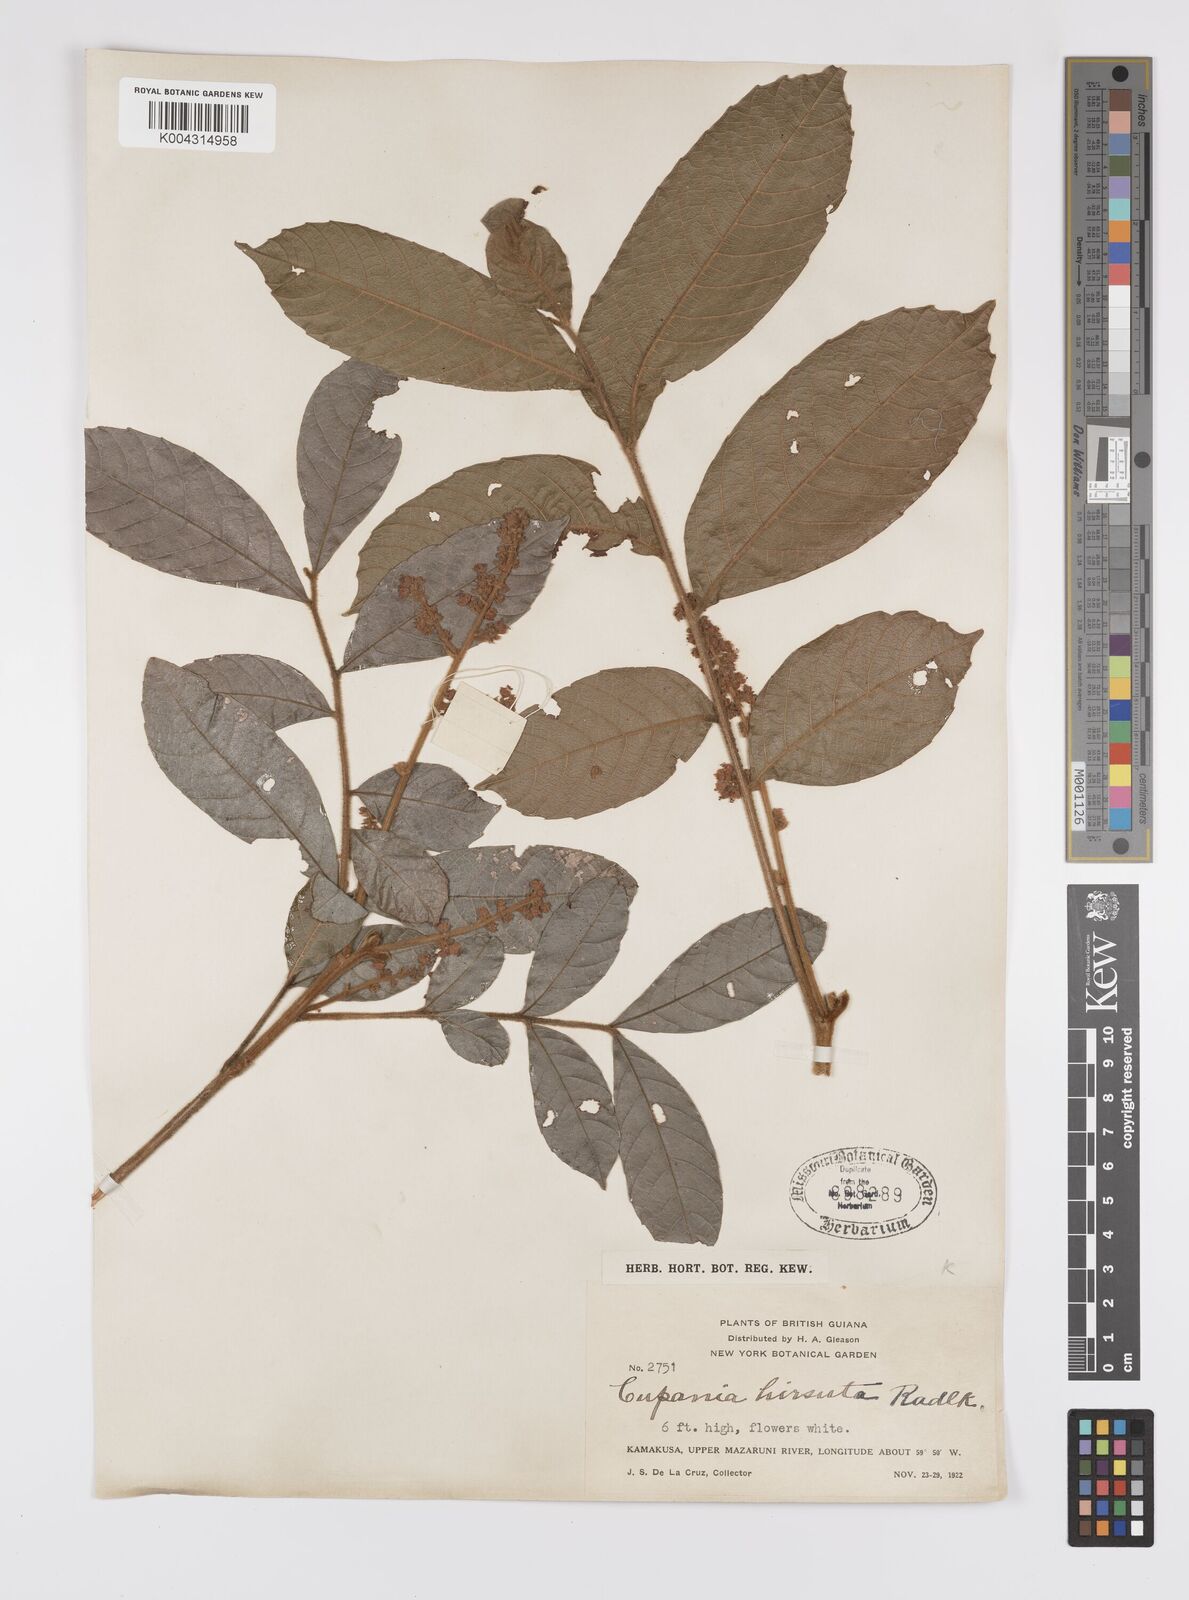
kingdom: Plantae
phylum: Tracheophyta
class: Magnoliopsida
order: Sapindales
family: Sapindaceae
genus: Cupania
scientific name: Cupania hirsuta
